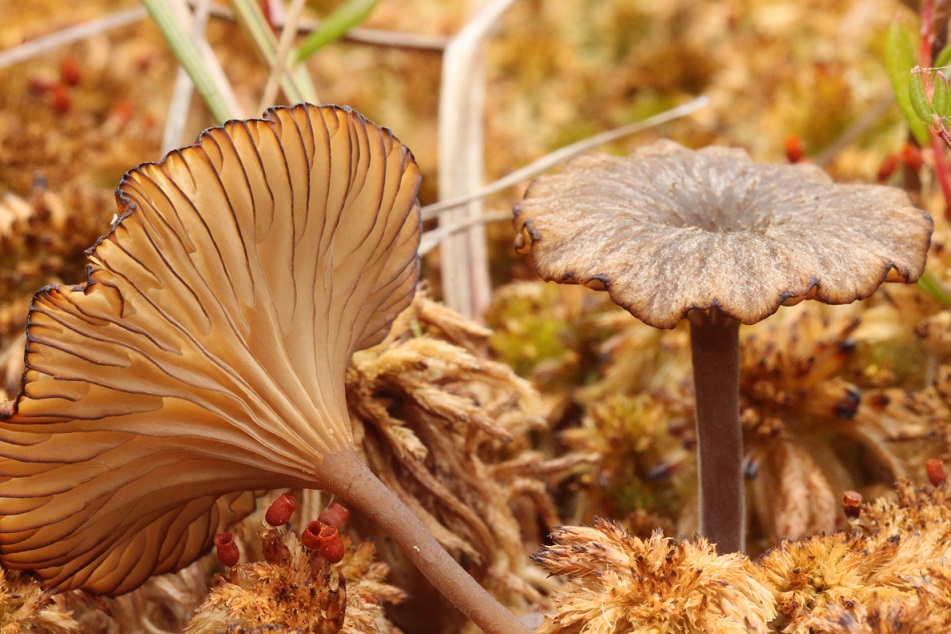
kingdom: Fungi
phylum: Basidiomycota
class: Agaricomycetes
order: Agaricales
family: Hygrophoraceae
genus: Arrhenia
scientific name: Arrhenia gerardiana
